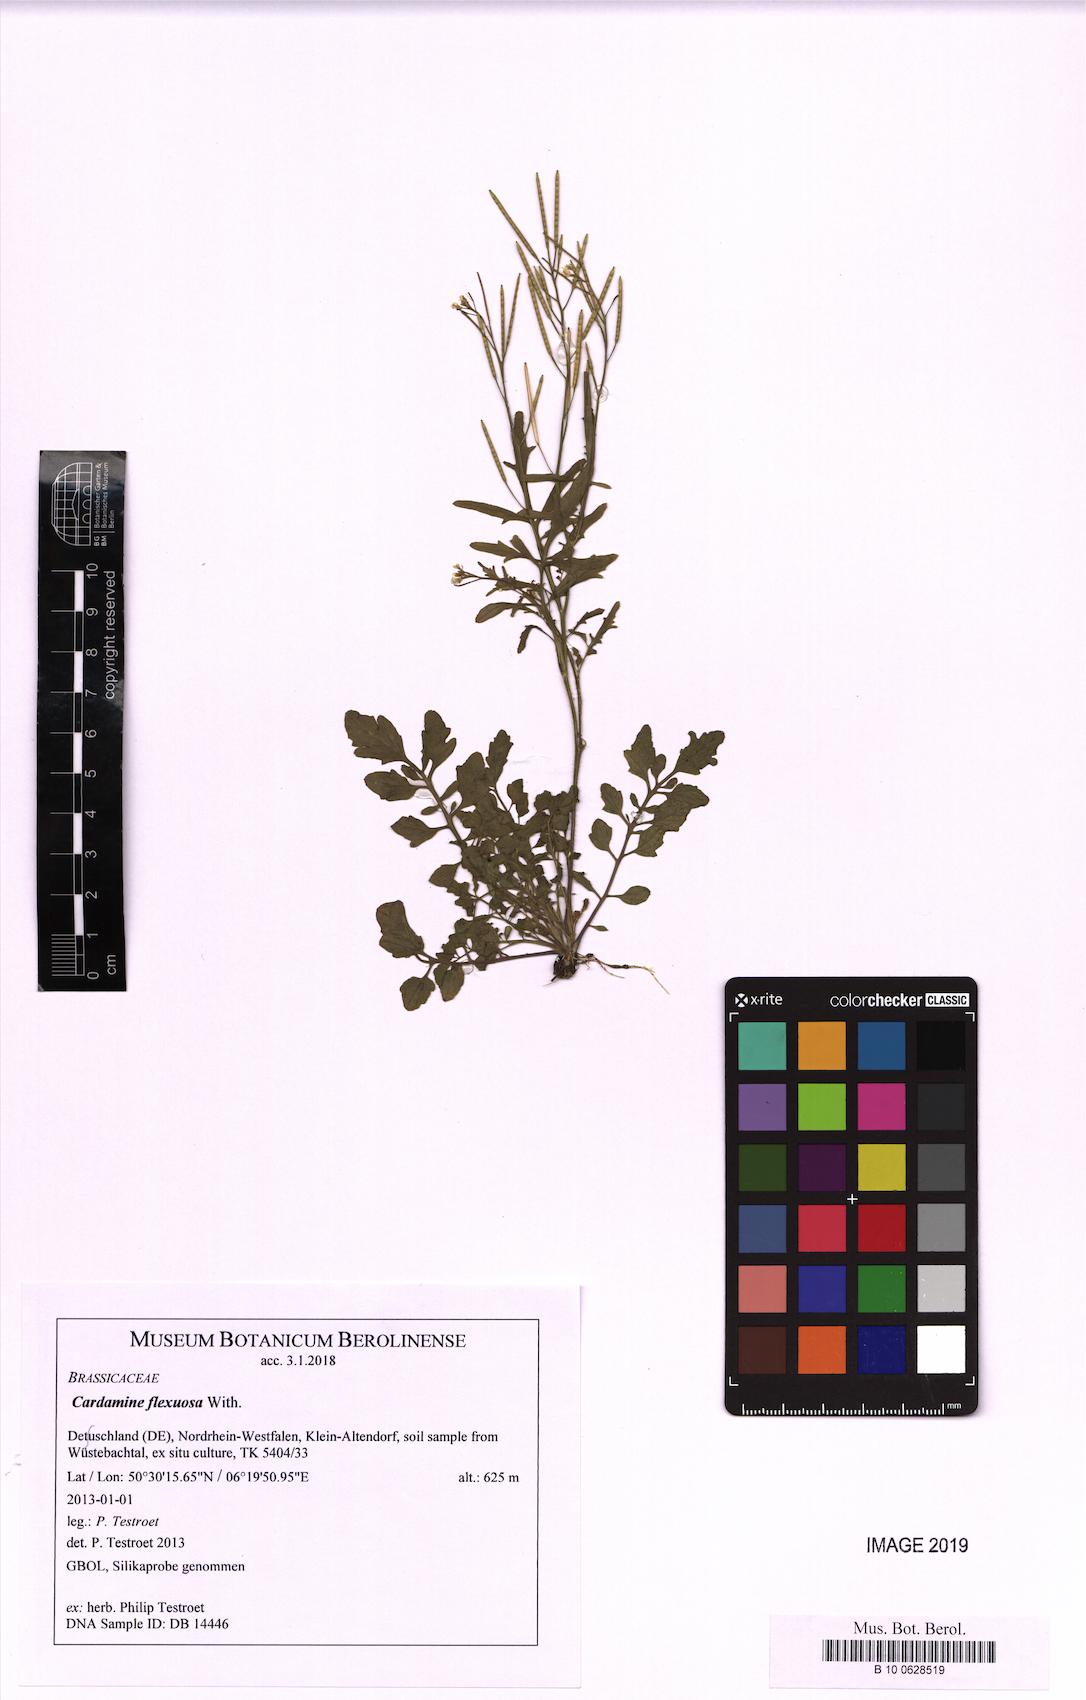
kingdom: Plantae
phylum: Tracheophyta
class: Magnoliopsida
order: Brassicales
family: Brassicaceae
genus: Cardamine
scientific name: Cardamine flexuosa
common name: Woodland bittercress
